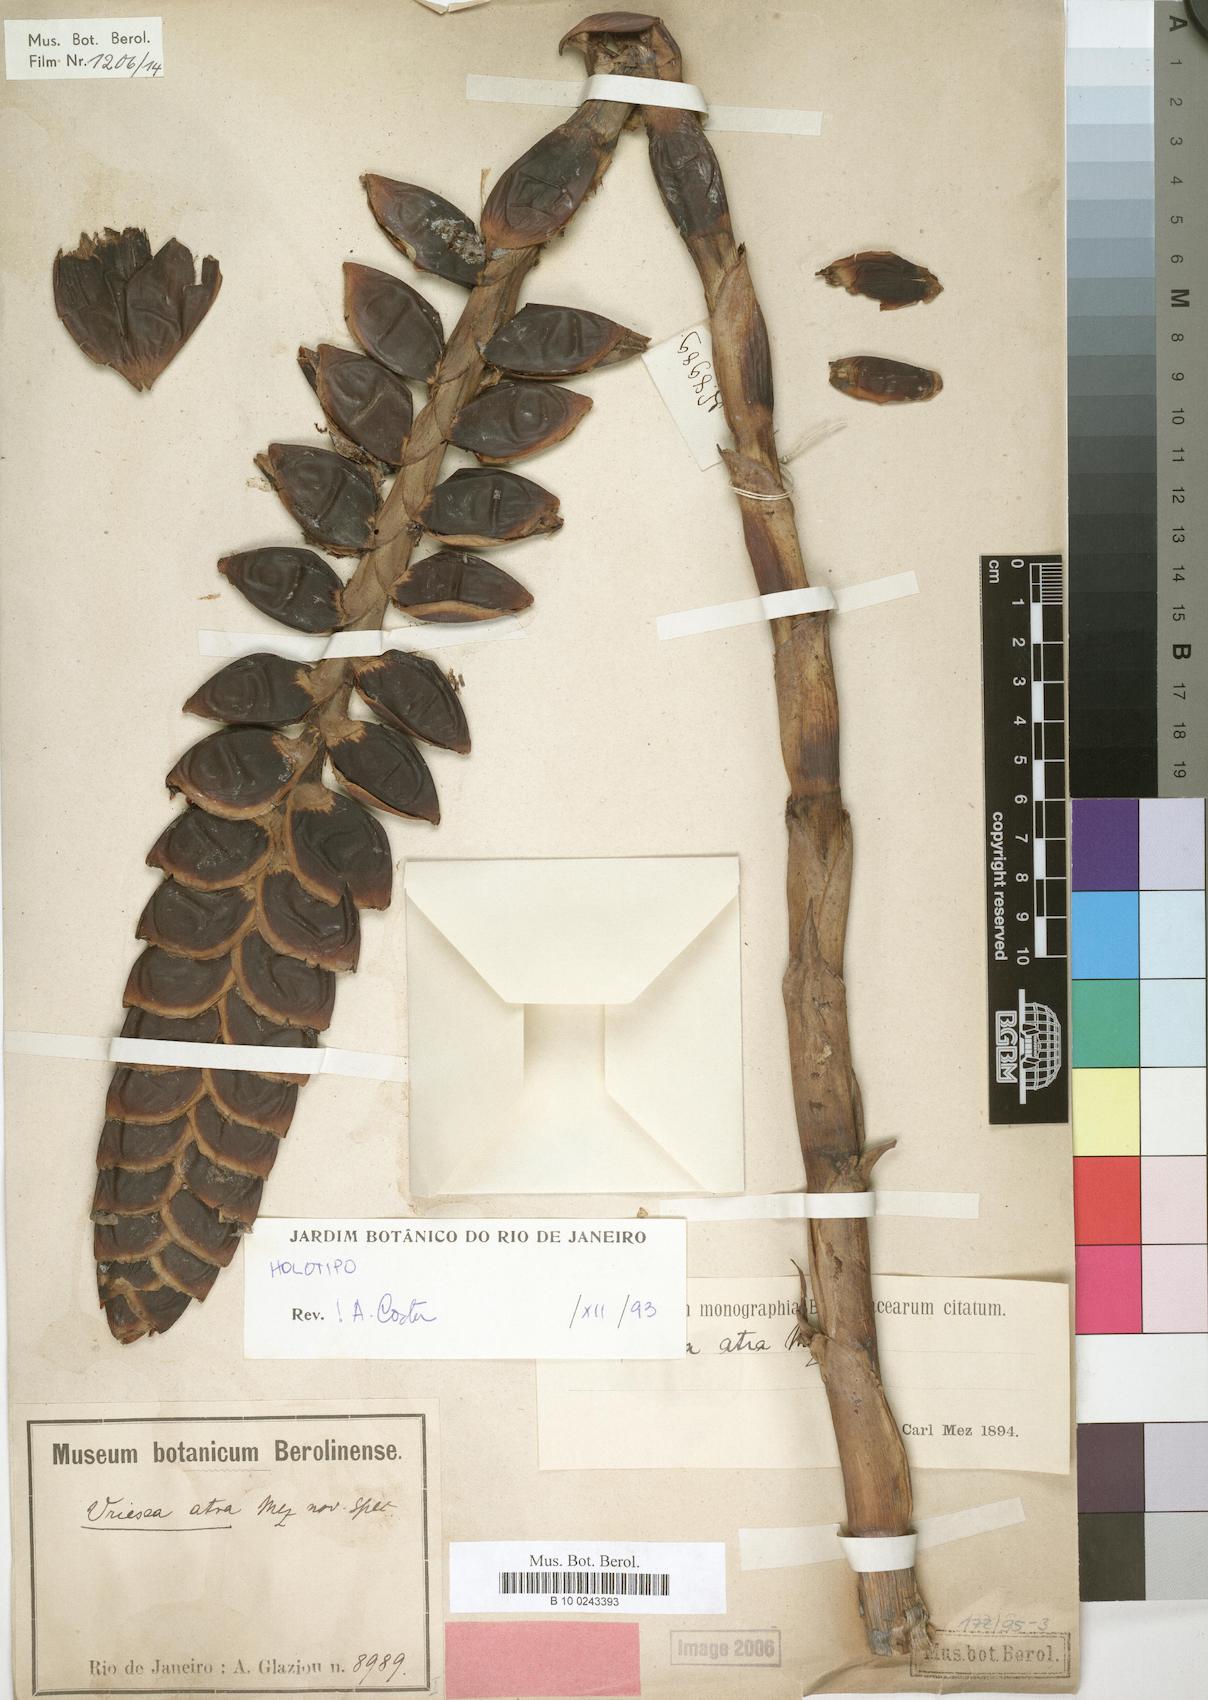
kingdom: Plantae
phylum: Tracheophyta
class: Liliopsida
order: Poales
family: Bromeliaceae
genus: Vriesea
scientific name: Vriesea atra
